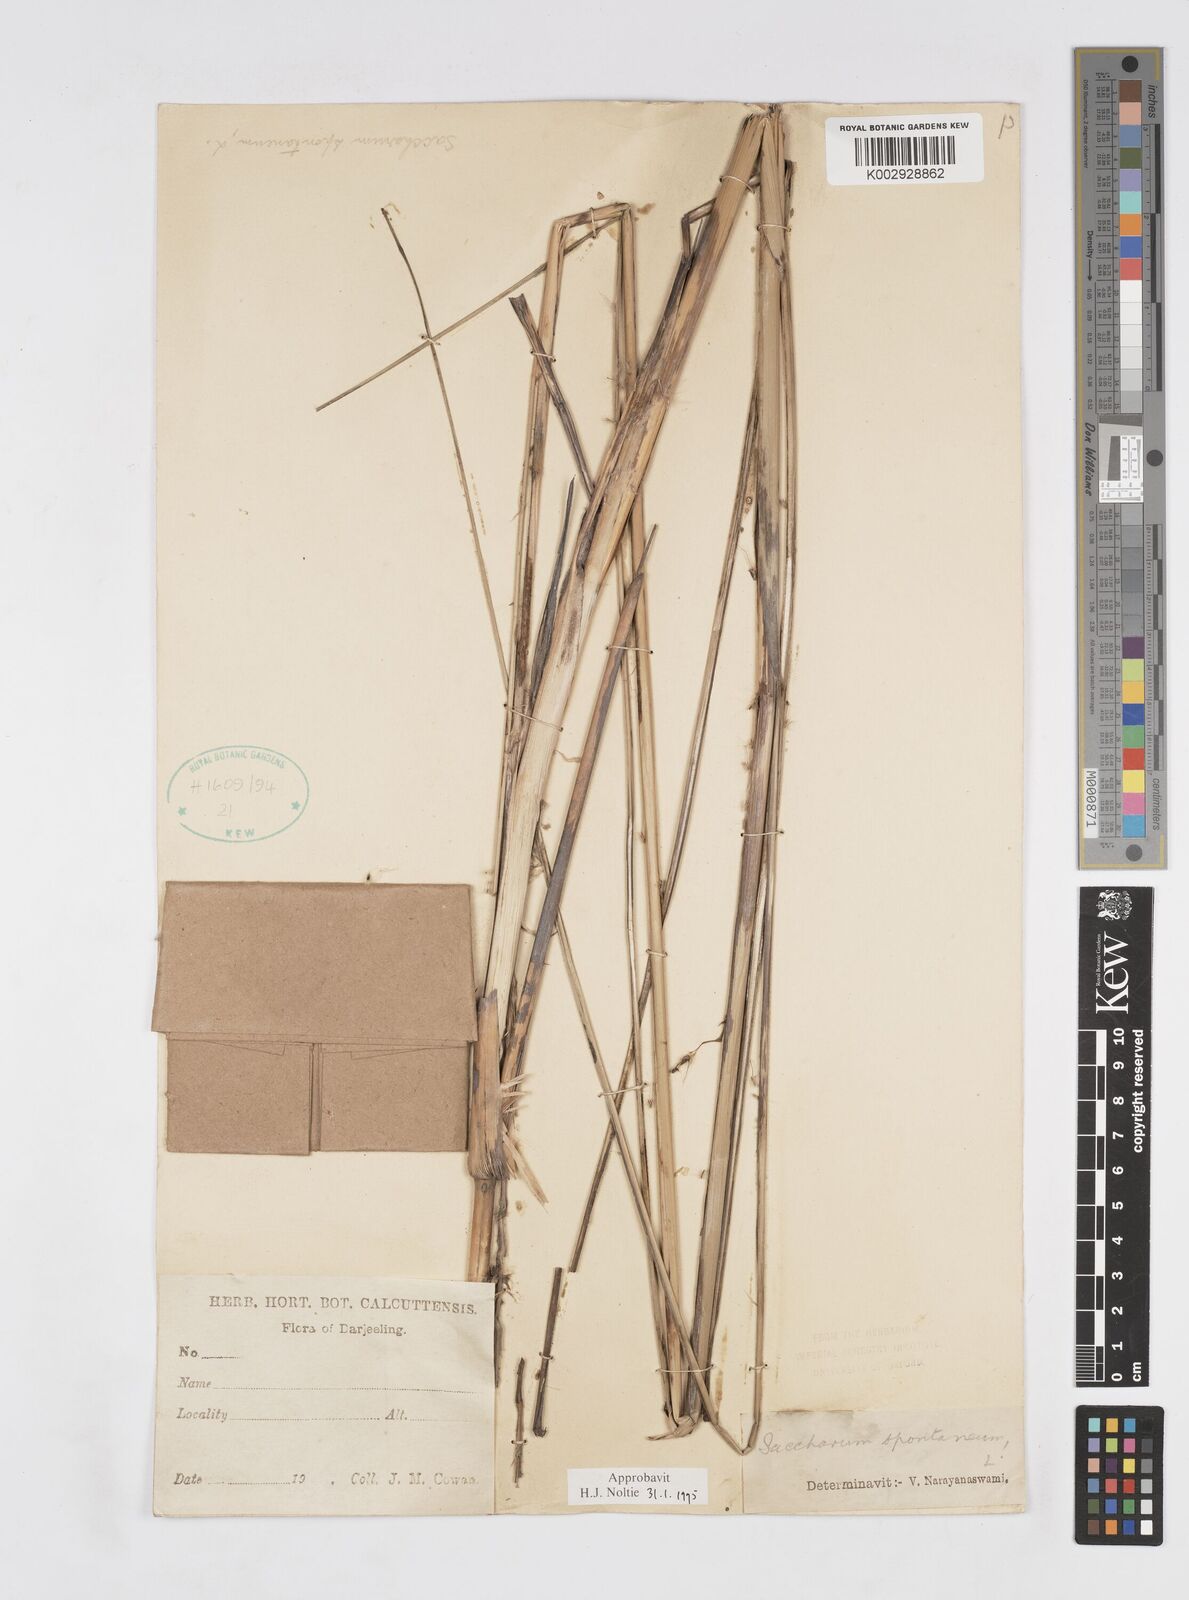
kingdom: Plantae
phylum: Tracheophyta
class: Liliopsida
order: Poales
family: Poaceae
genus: Saccharum
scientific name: Saccharum spontaneum
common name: Wild sugarcane
